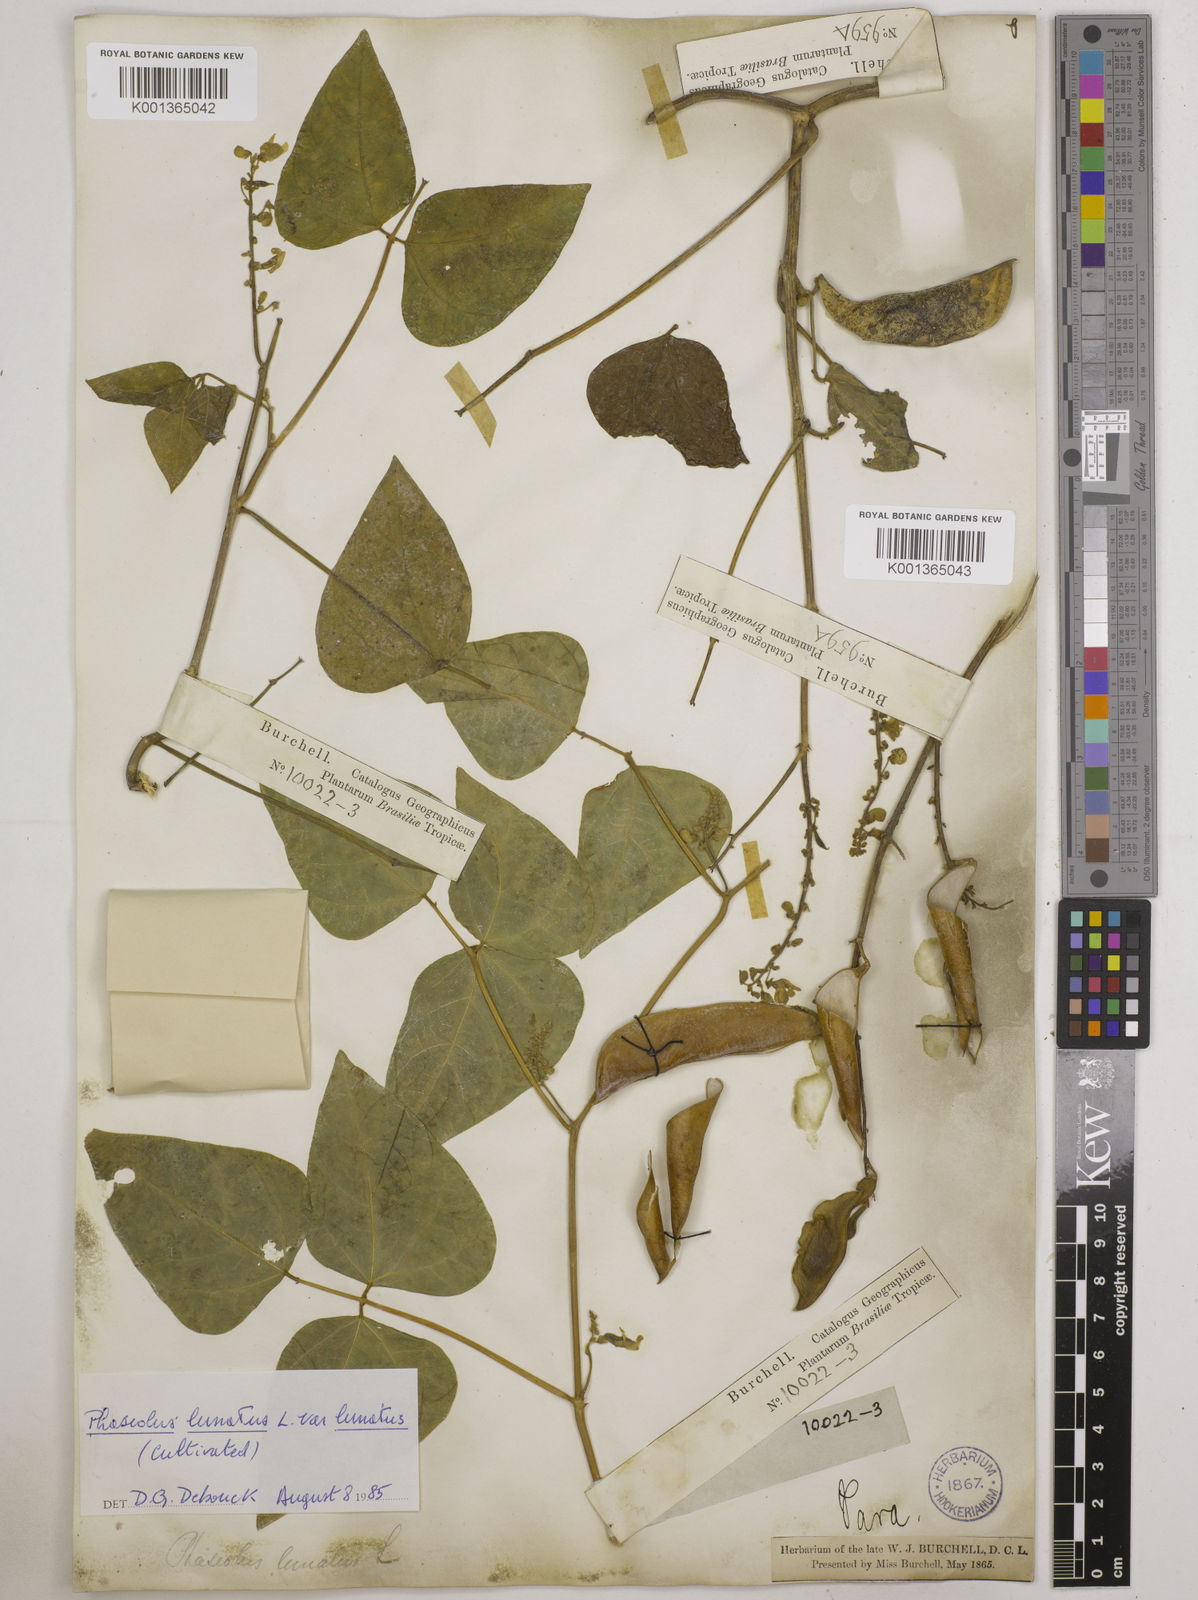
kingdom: Plantae
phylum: Tracheophyta
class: Magnoliopsida
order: Fabales
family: Fabaceae
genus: Phaseolus
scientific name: Phaseolus
